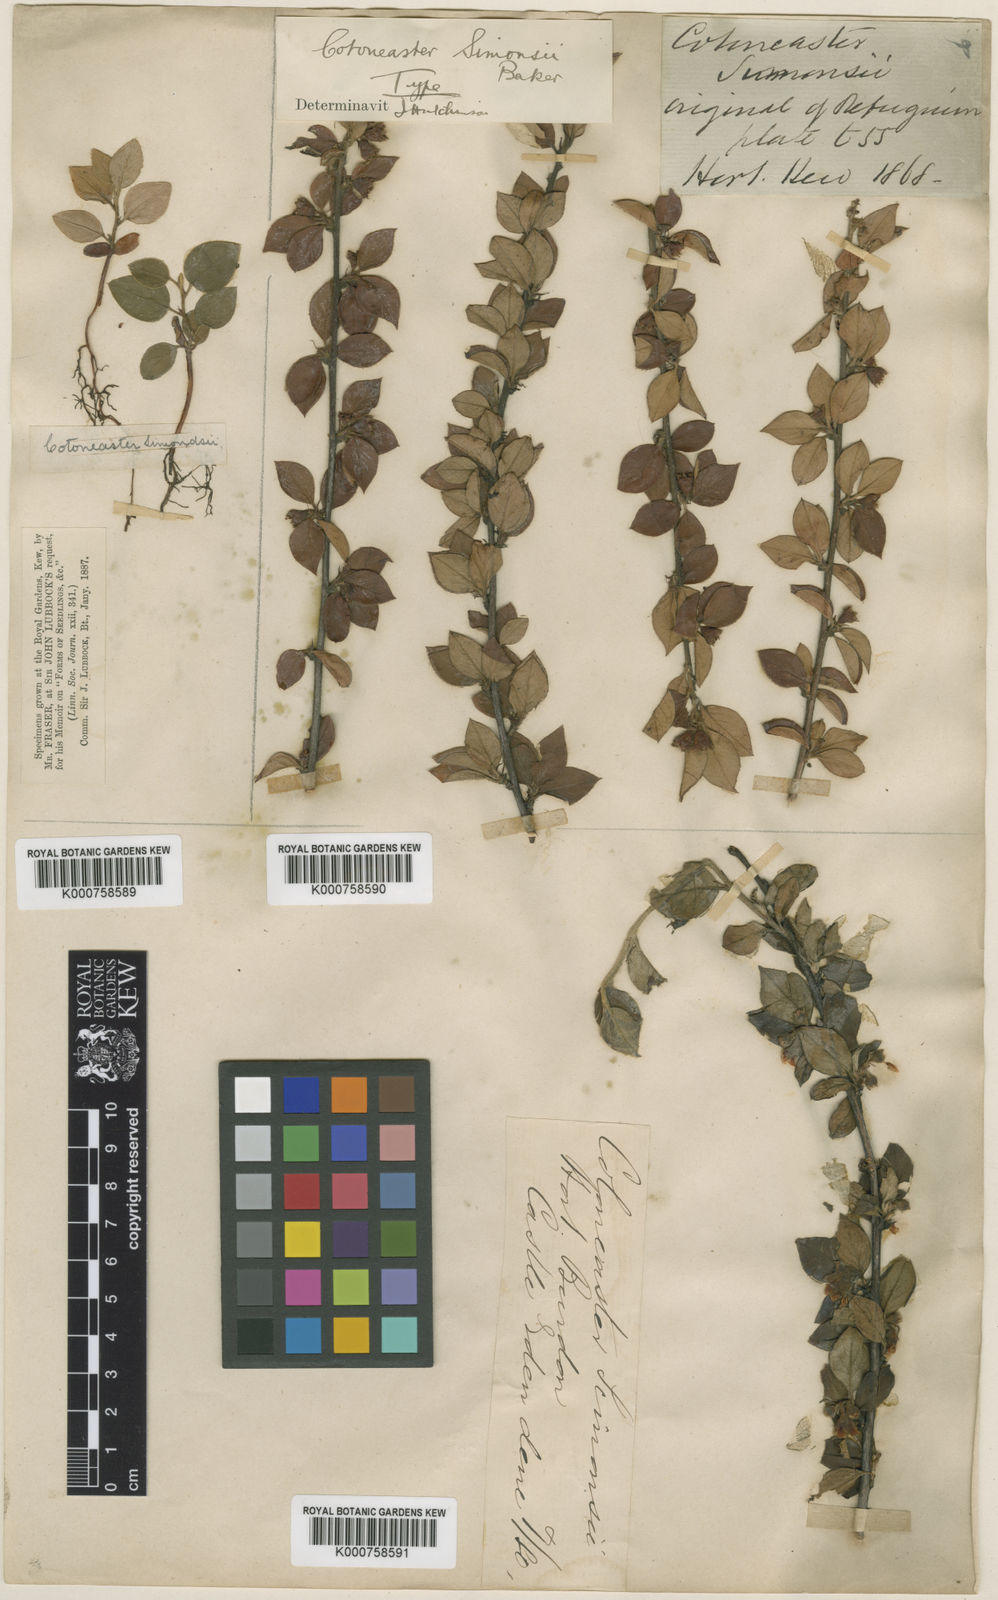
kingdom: Plantae
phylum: Tracheophyta
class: Magnoliopsida
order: Rosales
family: Rosaceae
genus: Cotoneaster
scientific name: Cotoneaster simonsii
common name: Himalayan cotoneaster
